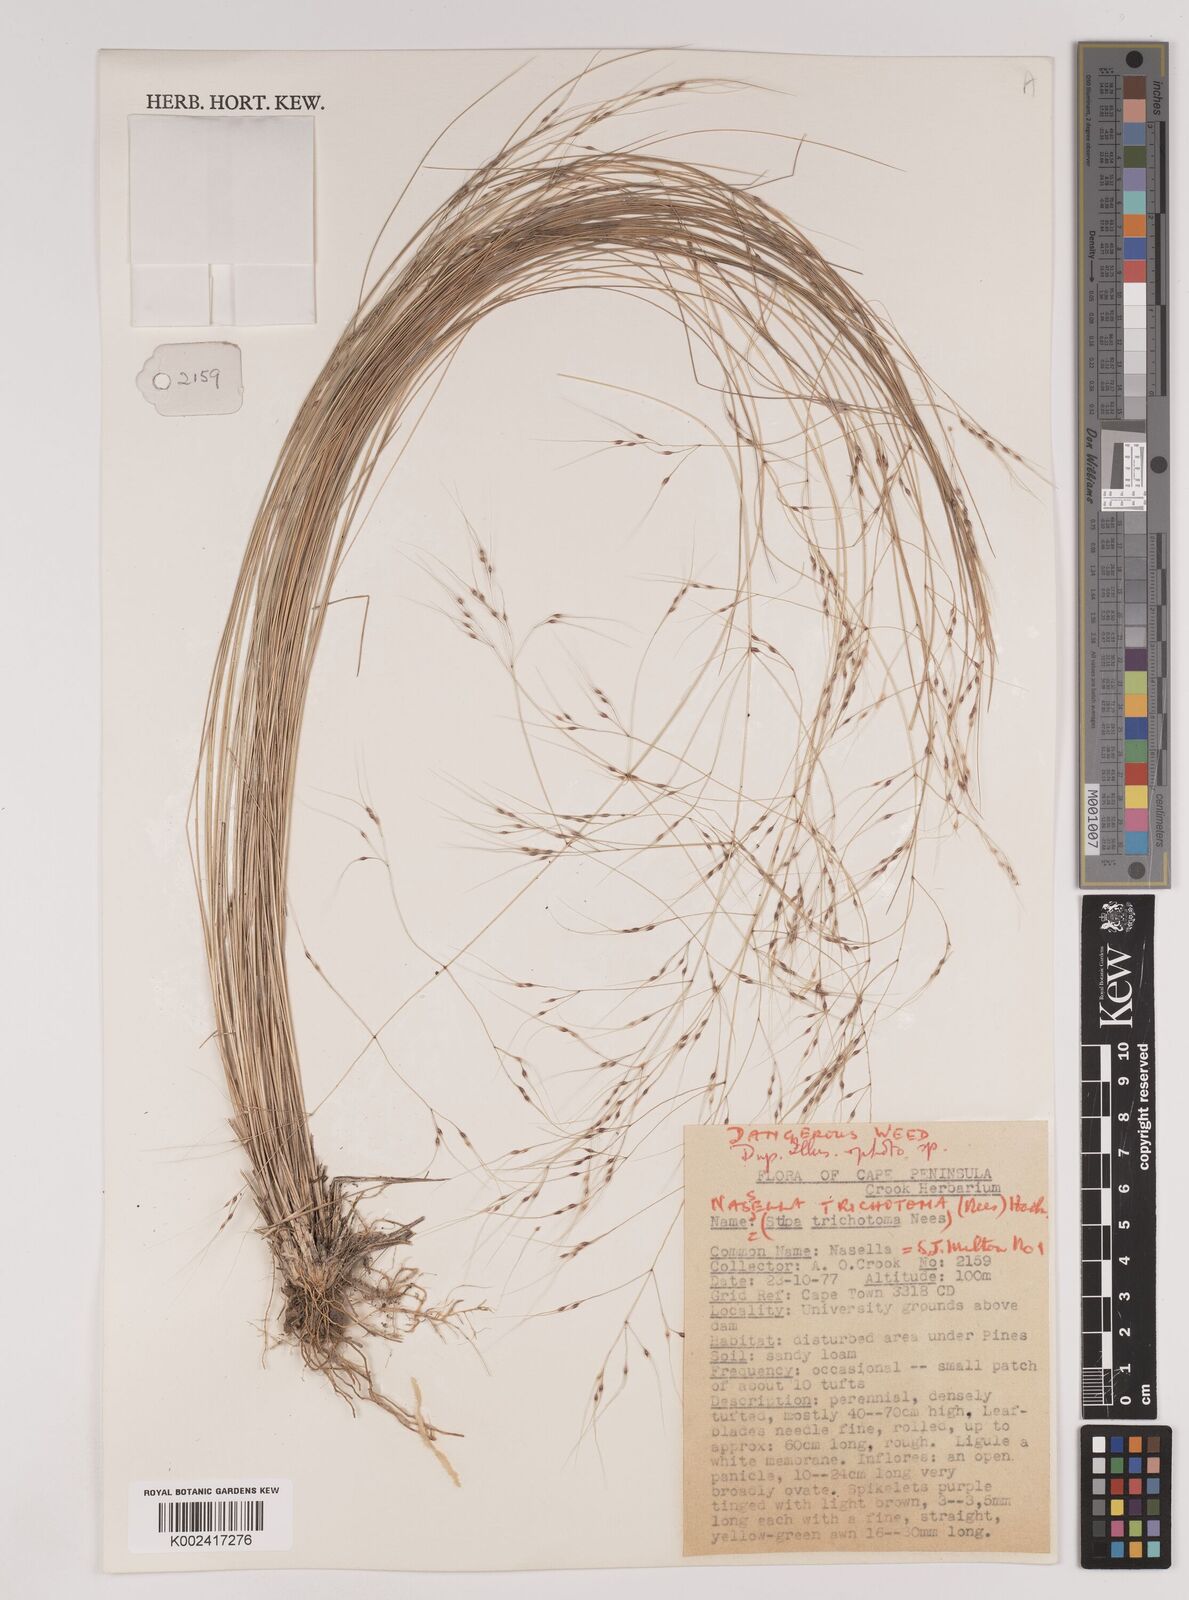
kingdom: Plantae
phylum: Tracheophyta
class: Liliopsida
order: Poales
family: Poaceae
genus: Nassella
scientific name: Nassella trichotoma
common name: Serrated tussock grass
